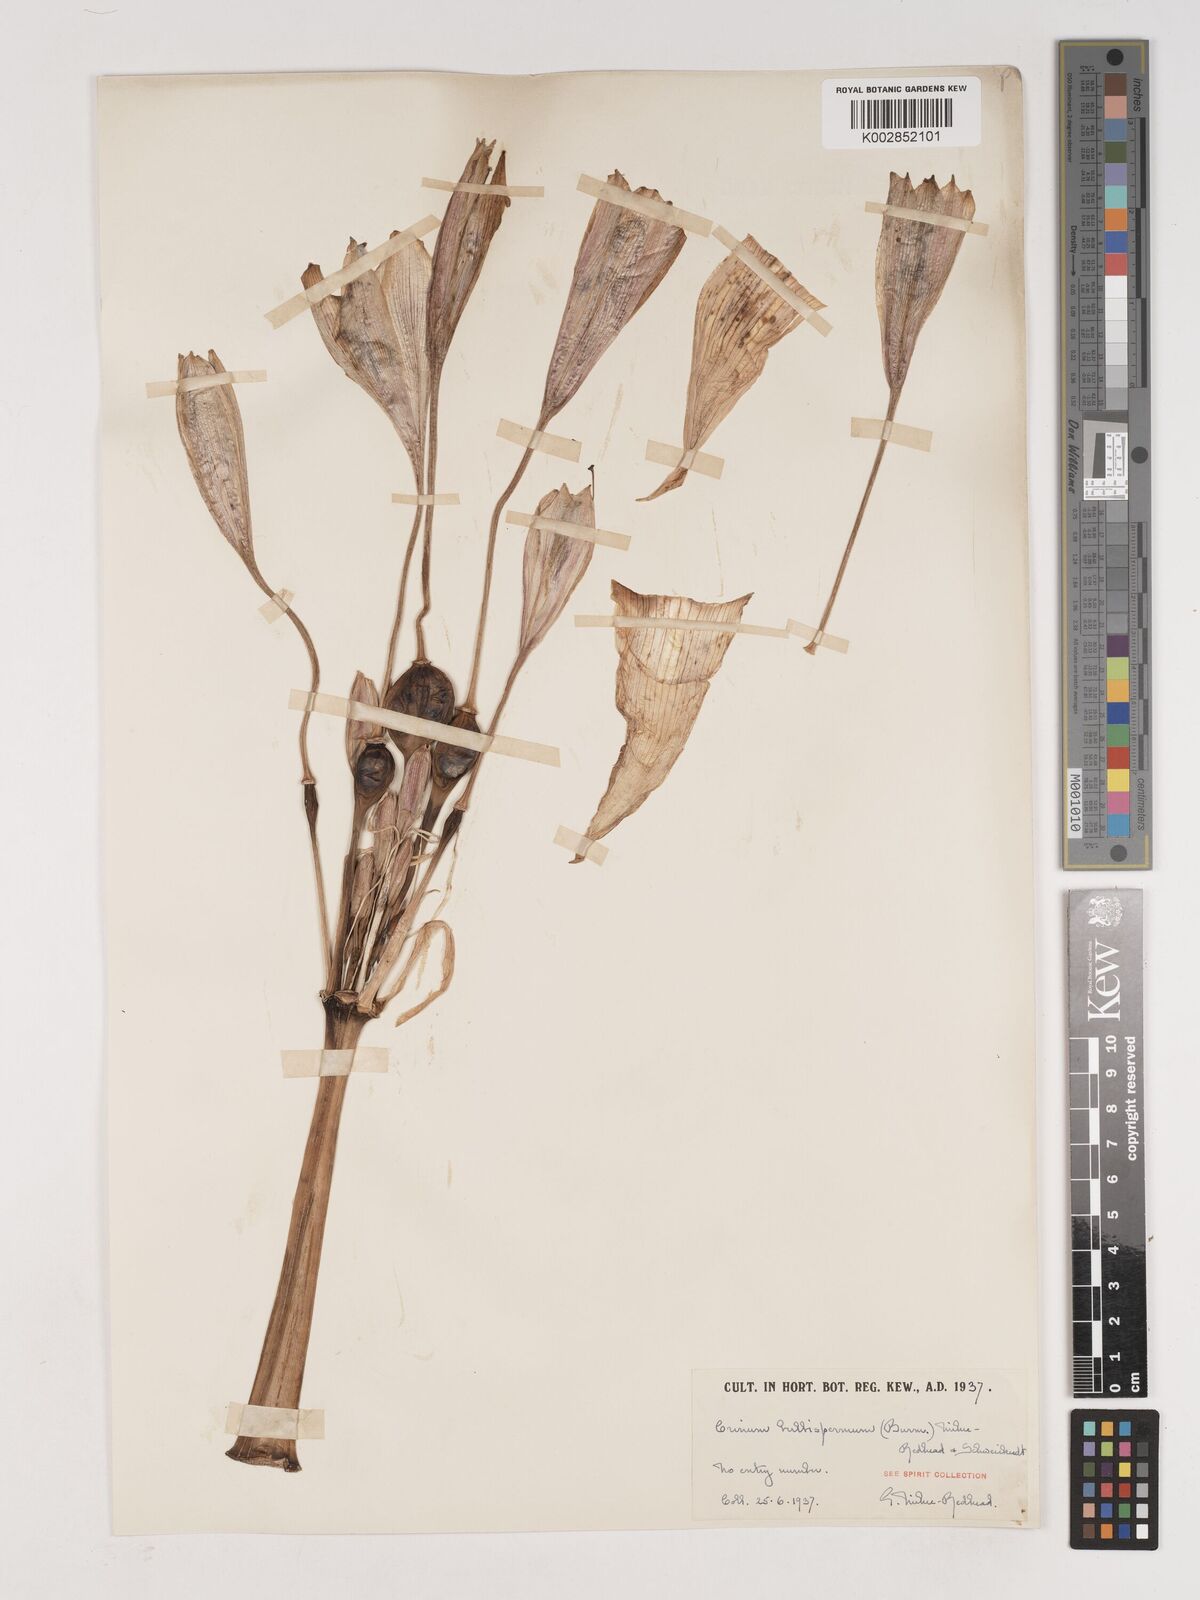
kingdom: Plantae
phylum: Tracheophyta
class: Liliopsida
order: Asparagales
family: Amaryllidaceae
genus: Crinum
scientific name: Crinum bulbispermum
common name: Hardy swamplily
